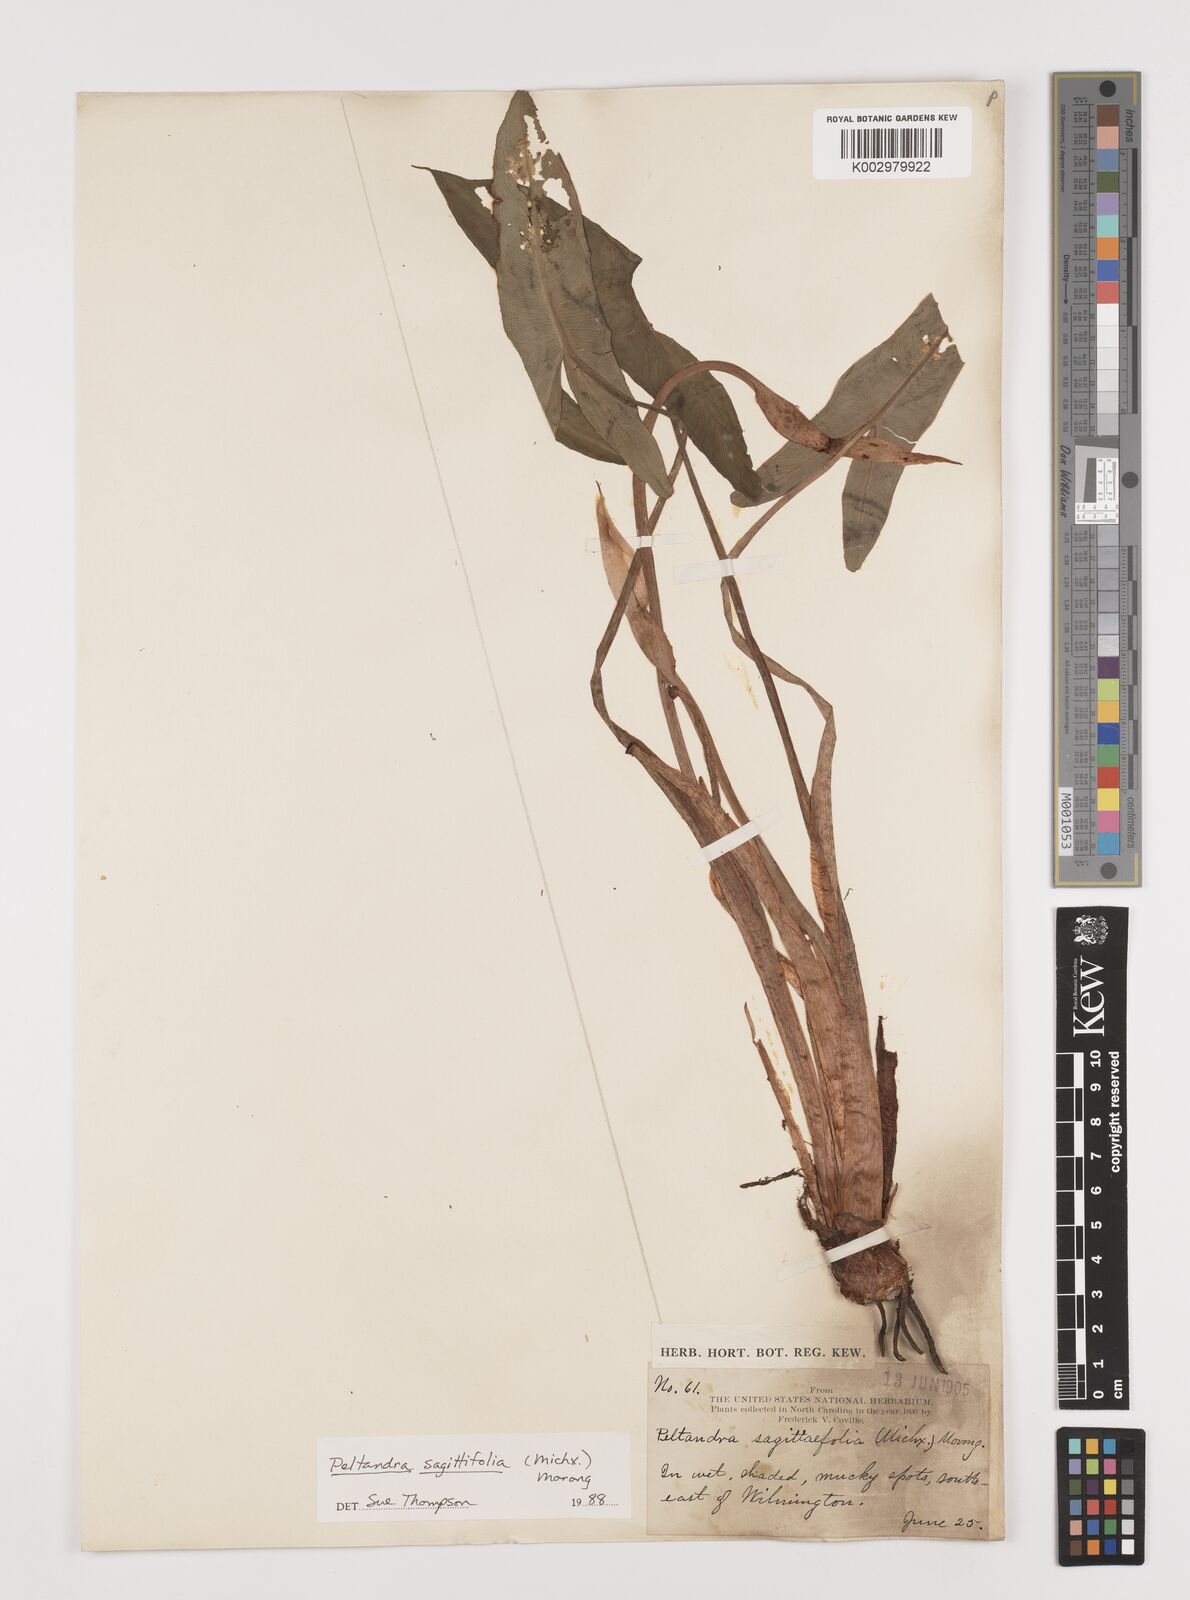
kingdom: Plantae
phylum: Tracheophyta
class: Liliopsida
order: Alismatales
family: Araceae
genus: Peltandra
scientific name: Peltandra sagittifolia
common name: White arrow arum
